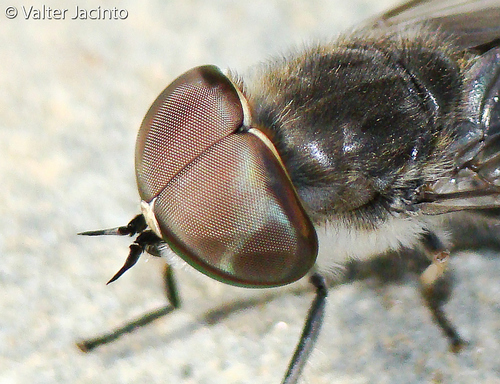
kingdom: Animalia
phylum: Arthropoda
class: Insecta
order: Diptera
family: Tabanidae
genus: Tabanus
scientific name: Tabanus maculicornis
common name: Narrow-winged horsefly
